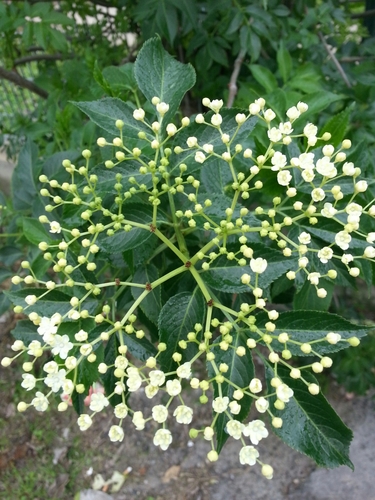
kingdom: Plantae
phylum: Tracheophyta
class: Magnoliopsida
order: Dipsacales
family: Viburnaceae
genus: Sambucus
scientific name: Sambucus nigra
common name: Elder
